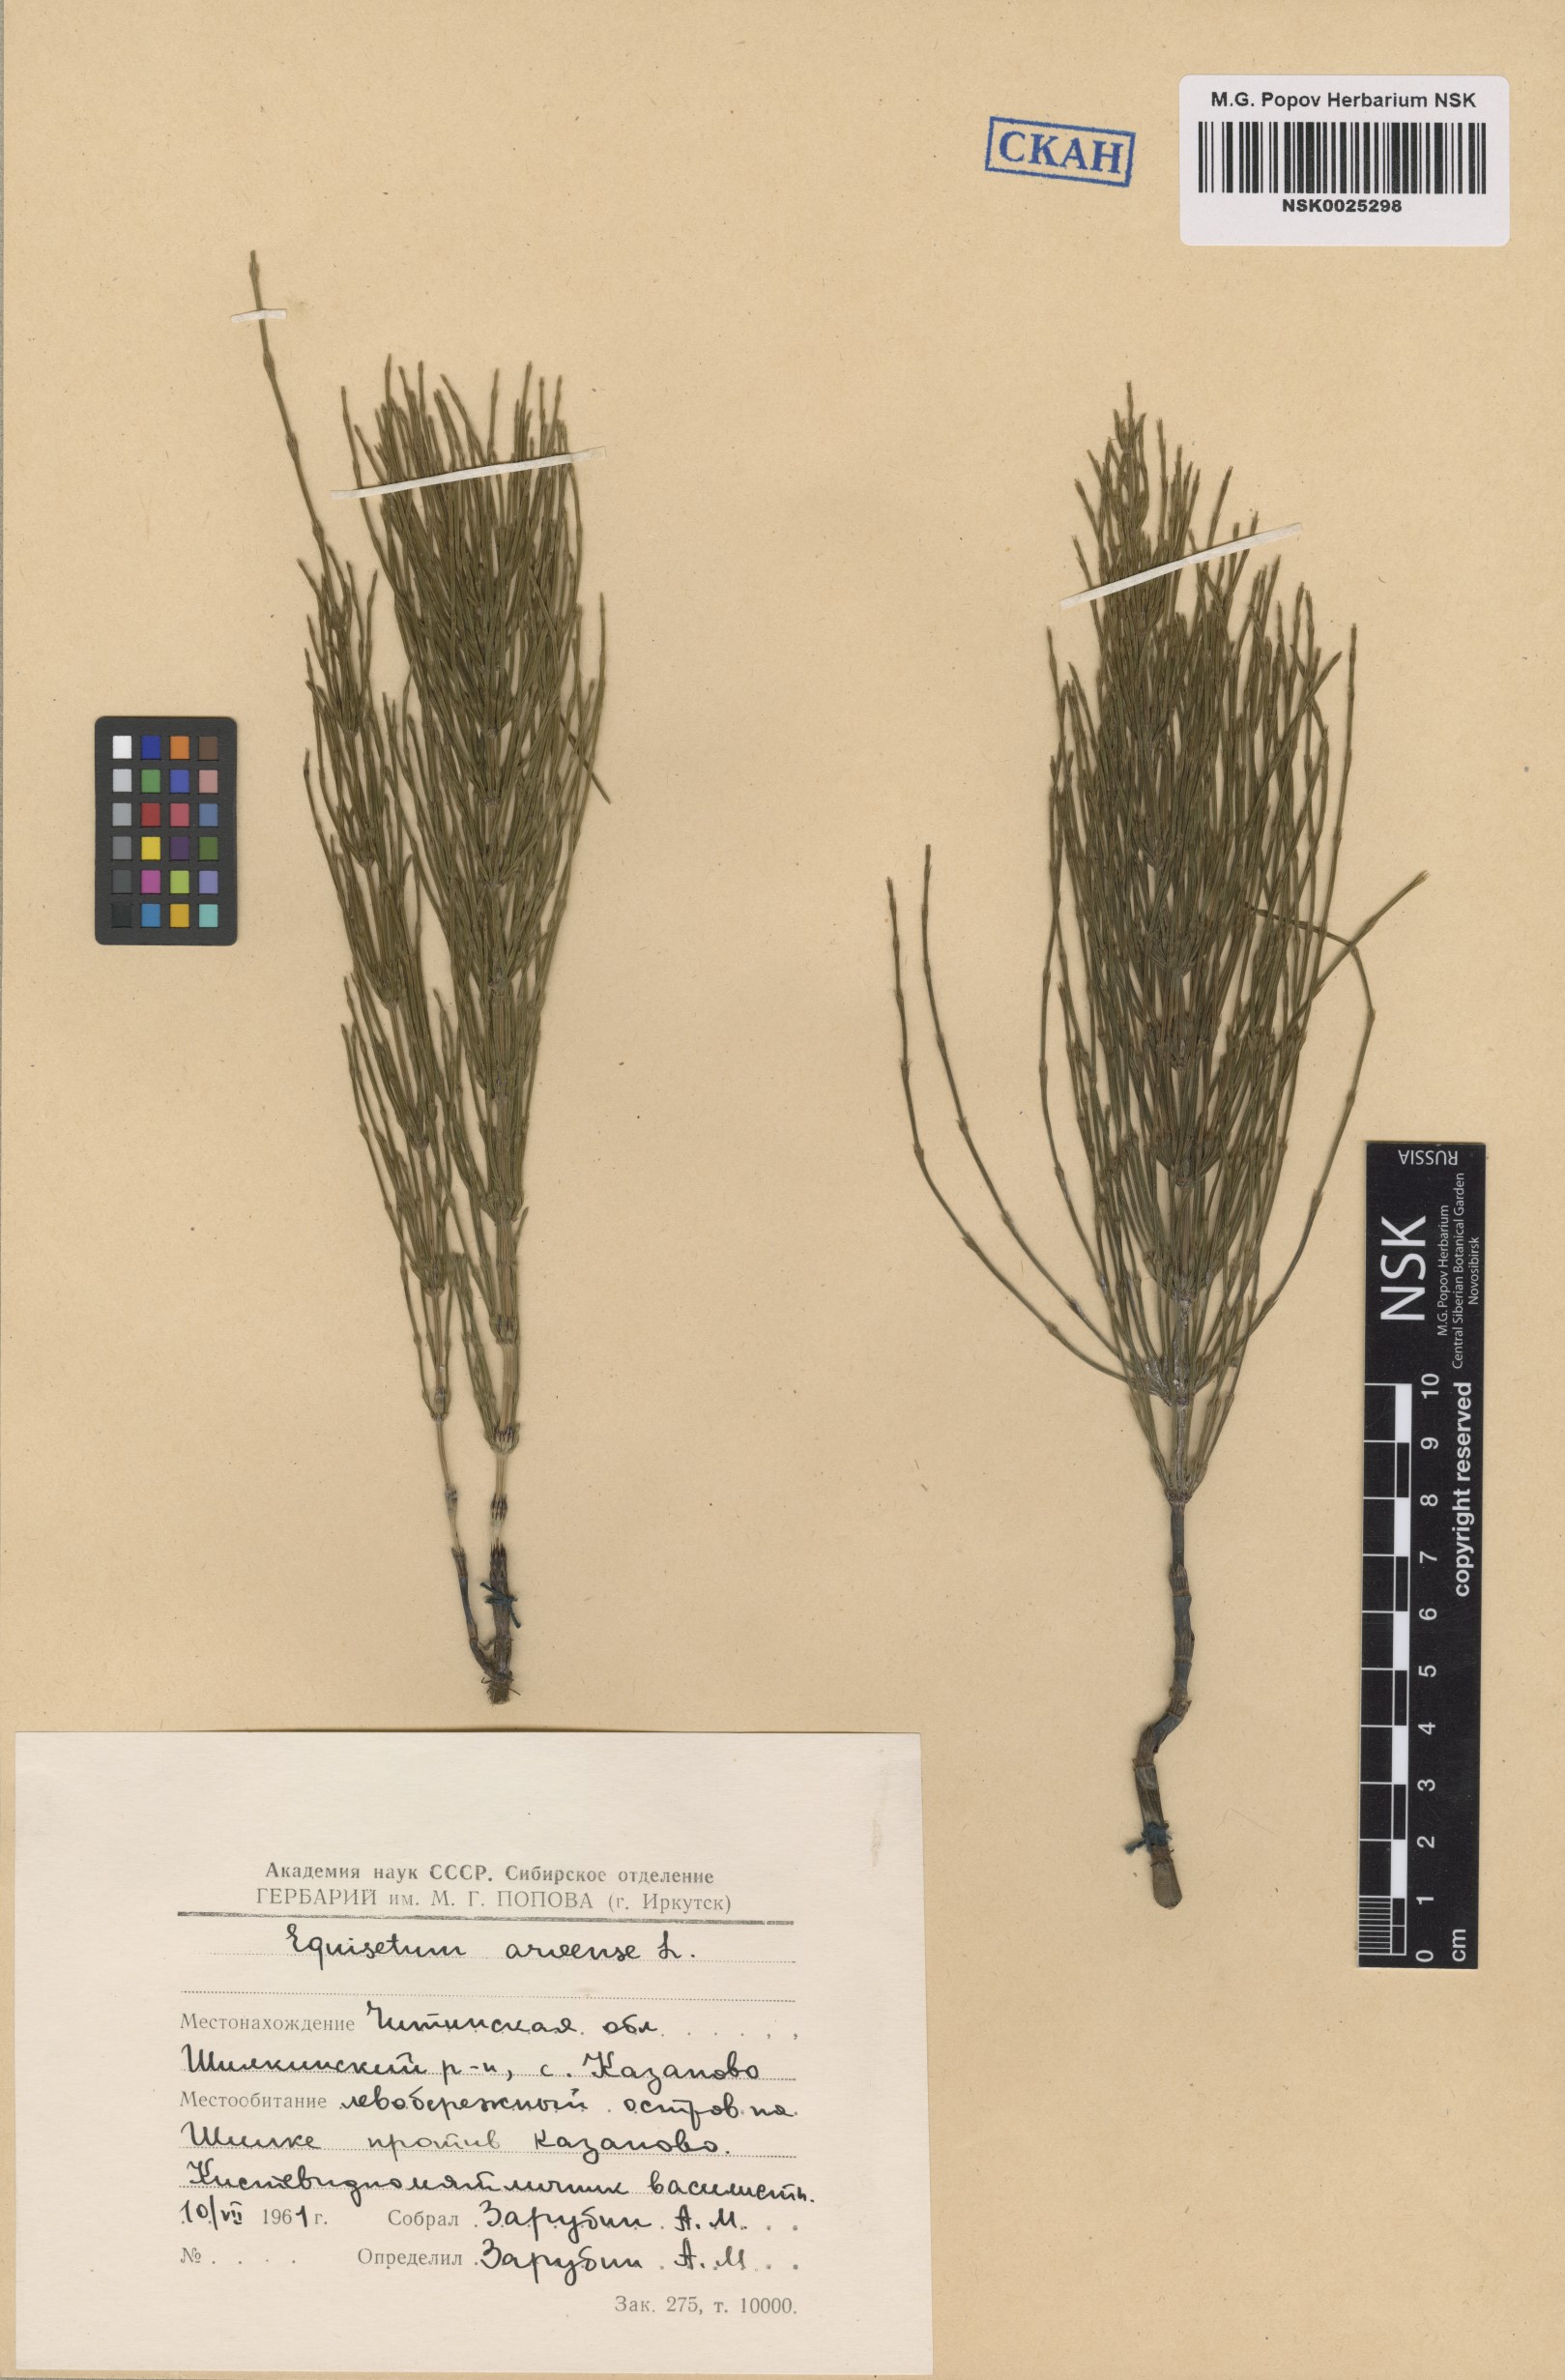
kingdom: Plantae
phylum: Tracheophyta
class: Polypodiopsida
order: Equisetales
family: Equisetaceae
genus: Equisetum
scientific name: Equisetum arvense
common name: Field horsetail
